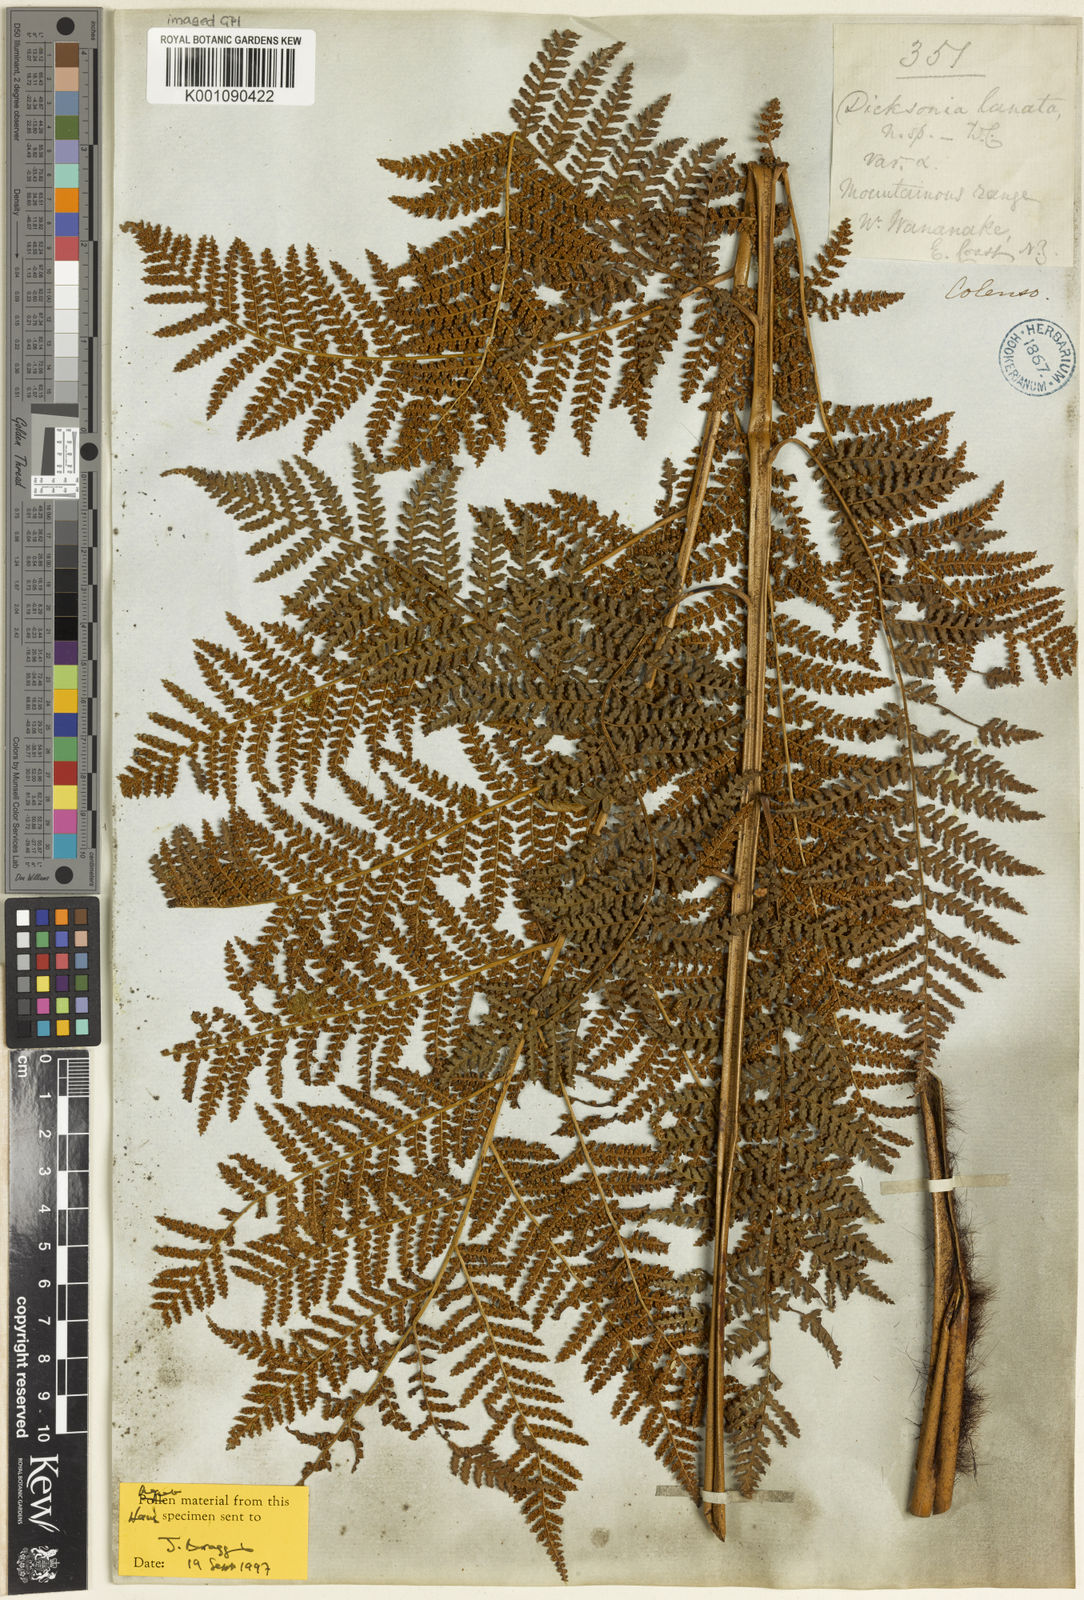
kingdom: Plantae
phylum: Tracheophyta
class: Polypodiopsida
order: Cyatheales
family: Dicksoniaceae
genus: Dicksonia
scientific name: Dicksonia lanata
